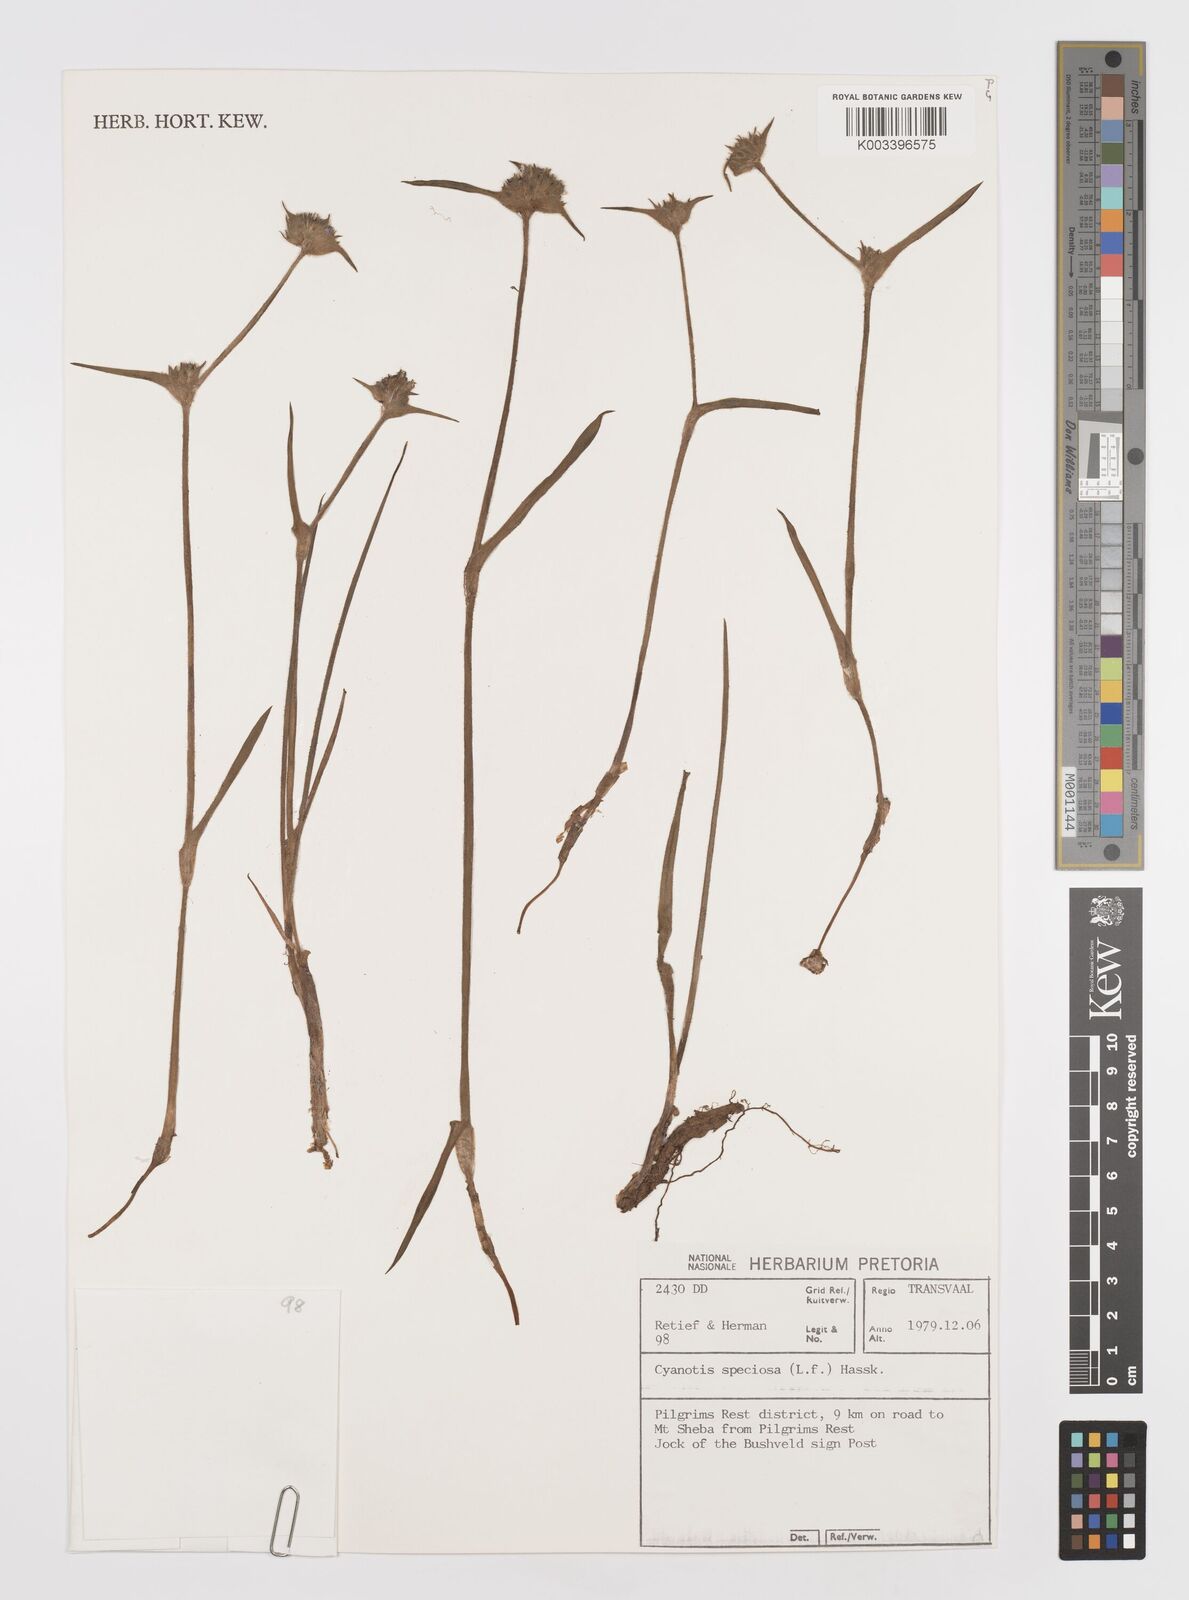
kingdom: Plantae
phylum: Tracheophyta
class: Liliopsida
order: Commelinales
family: Commelinaceae
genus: Cyanotis
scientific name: Cyanotis speciosa
